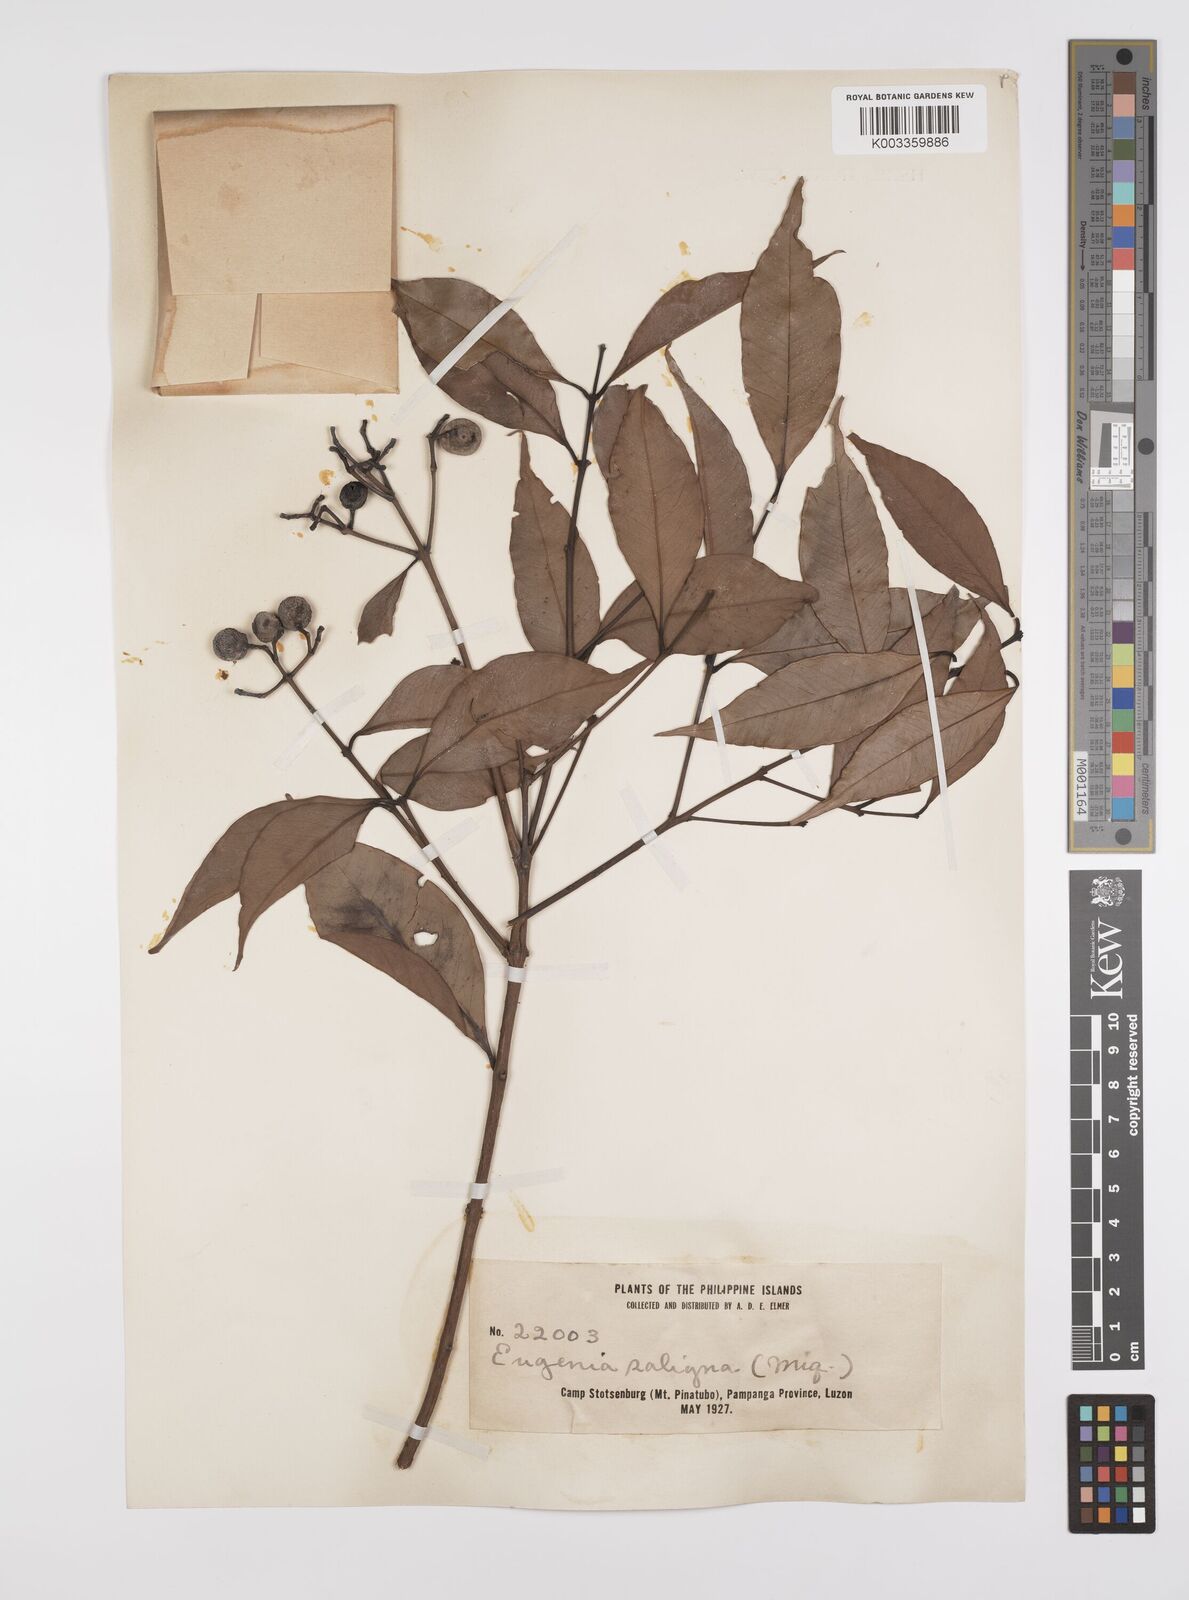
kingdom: Plantae
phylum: Tracheophyta
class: Magnoliopsida
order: Myrtales
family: Myrtaceae
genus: Syzygium
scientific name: Syzygium
